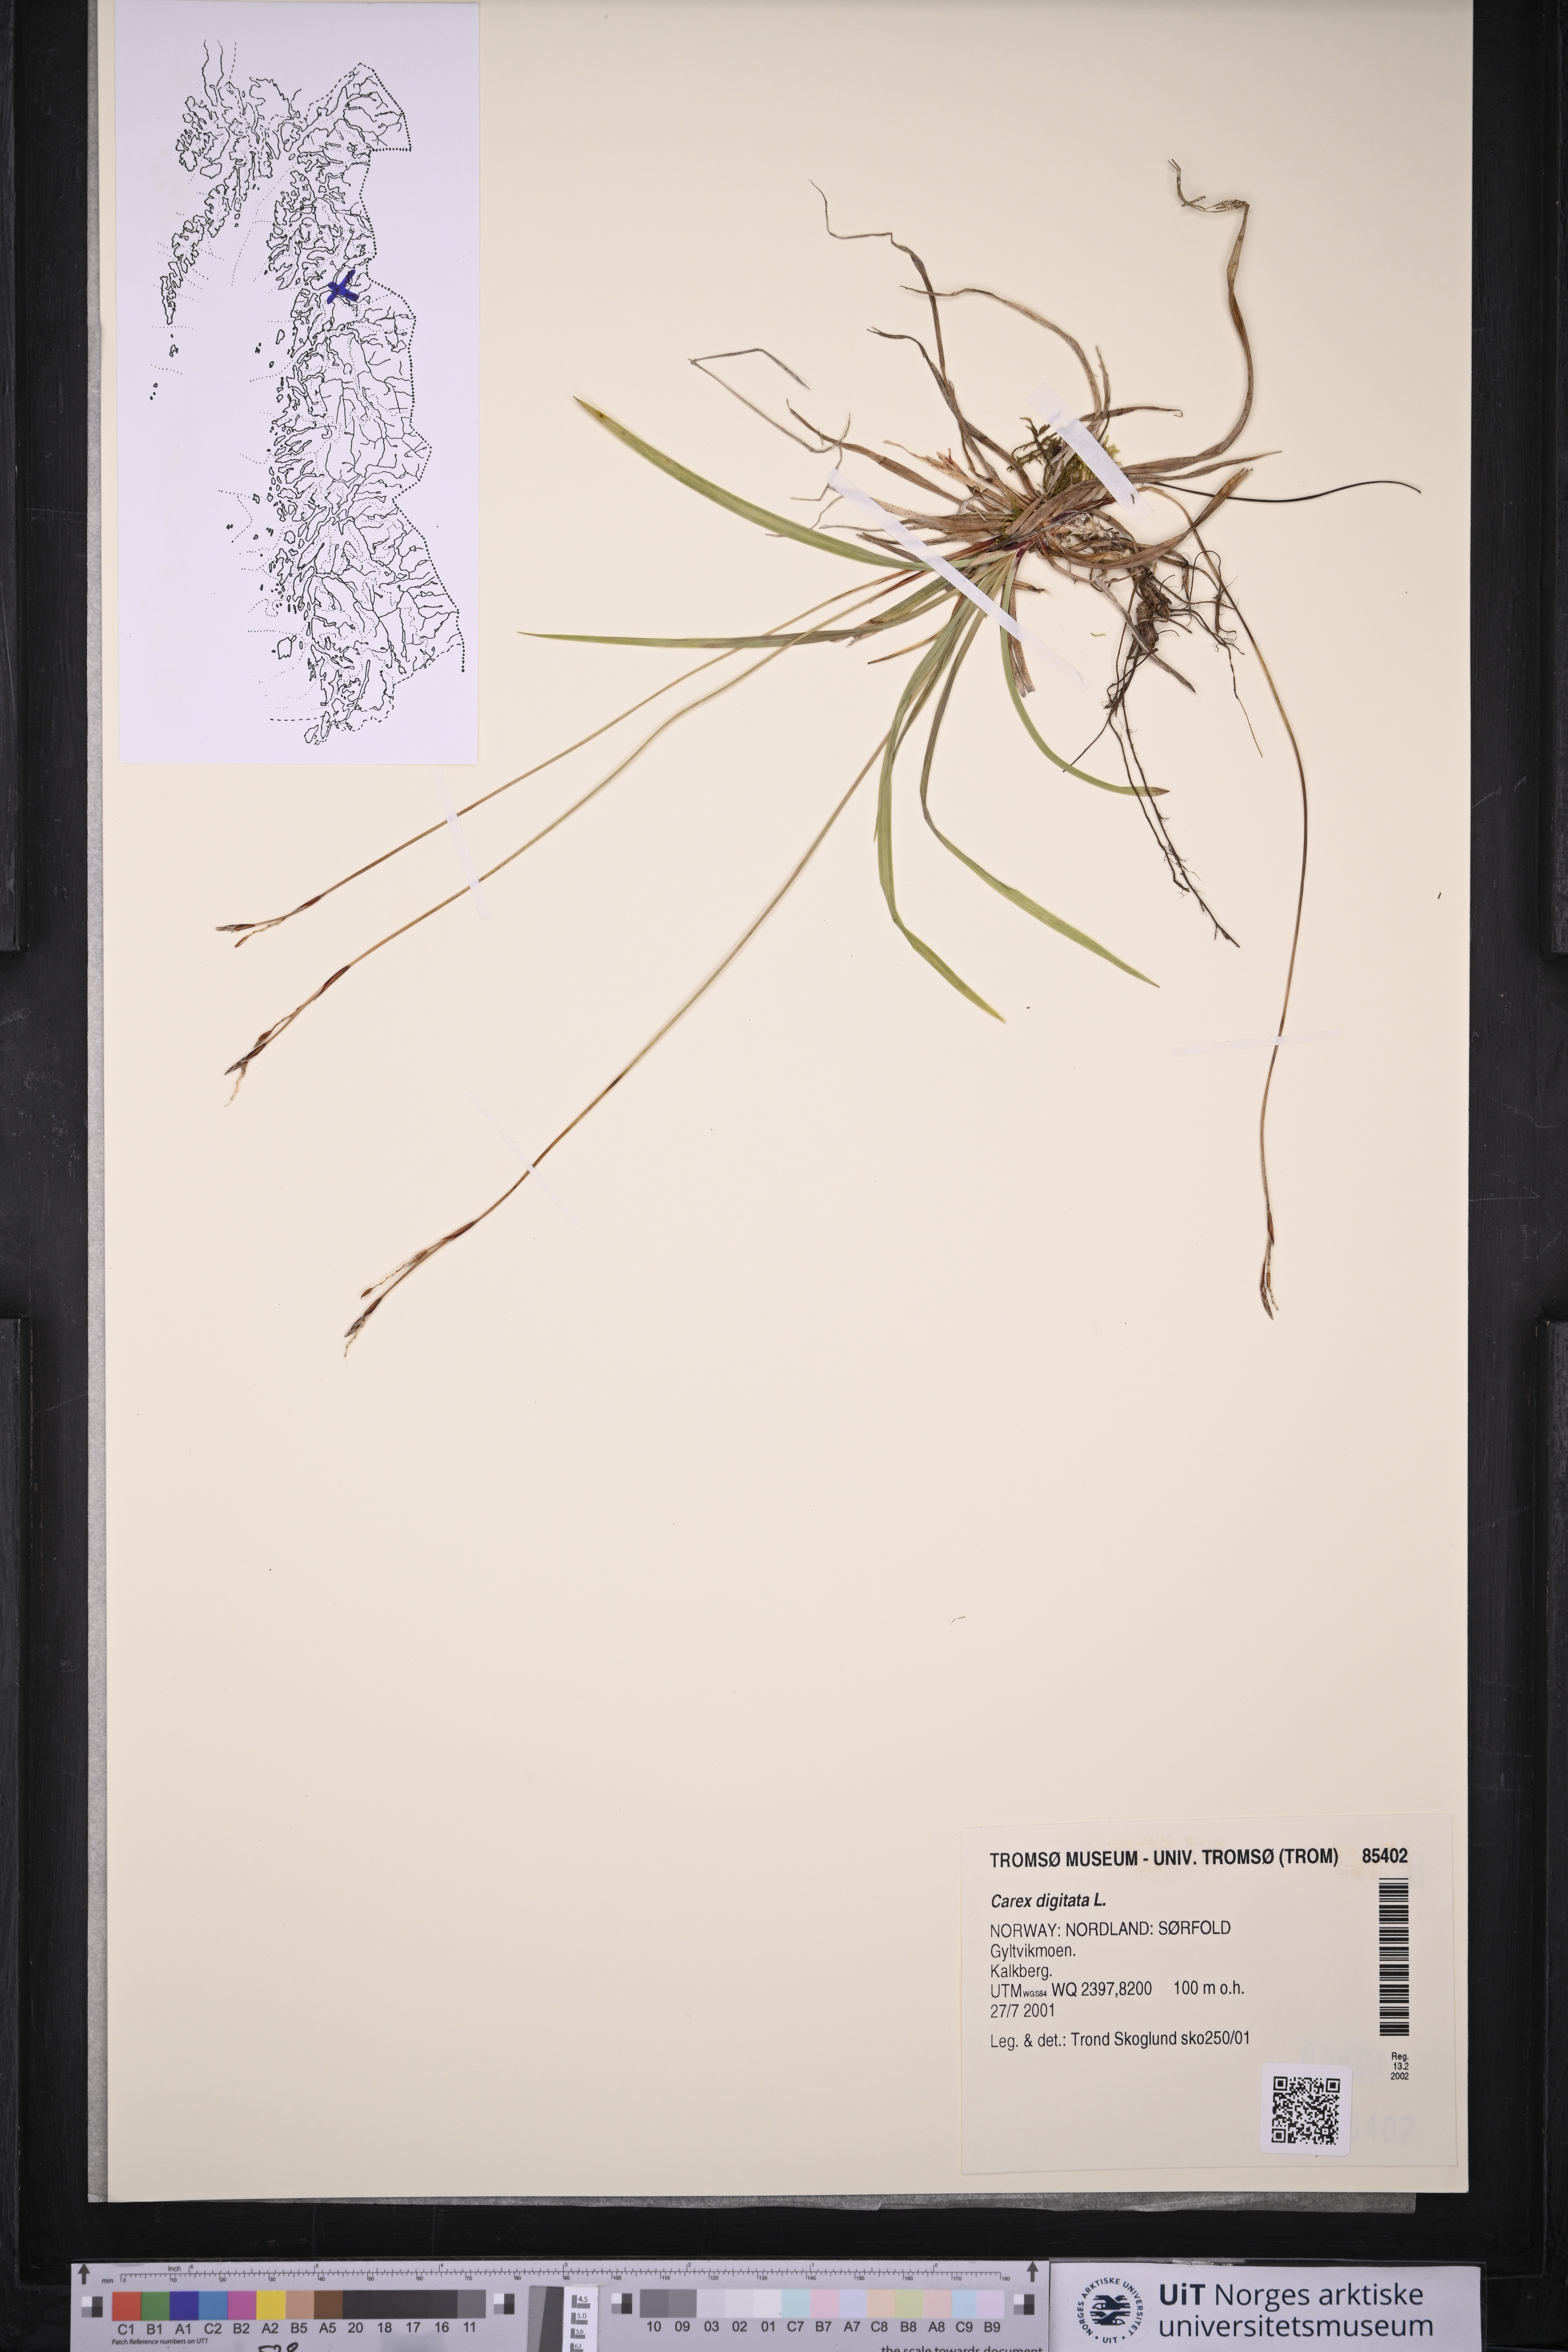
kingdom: Plantae
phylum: Tracheophyta
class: Liliopsida
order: Poales
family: Cyperaceae
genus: Carex
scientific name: Carex digitata
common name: Fingered sedge
